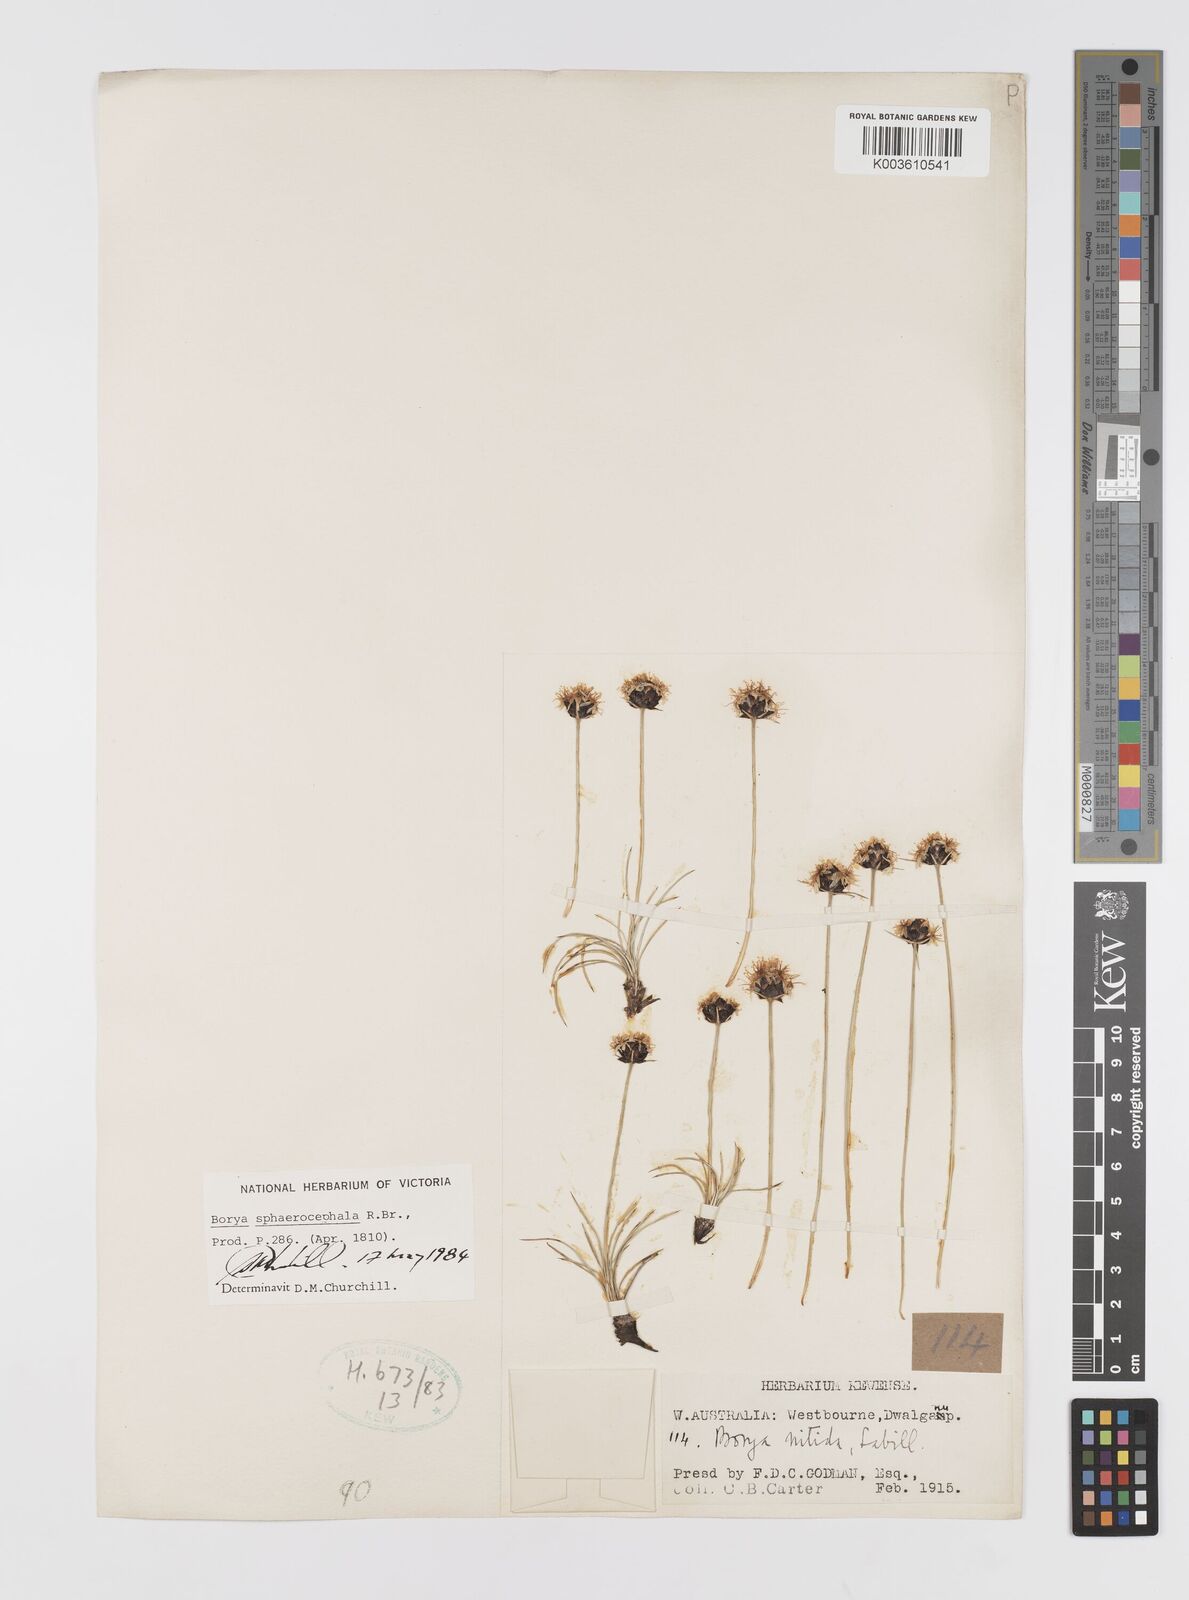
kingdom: Plantae
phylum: Tracheophyta
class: Liliopsida
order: Asparagales
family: Boryaceae
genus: Borya
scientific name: Borya sphaerocephala
